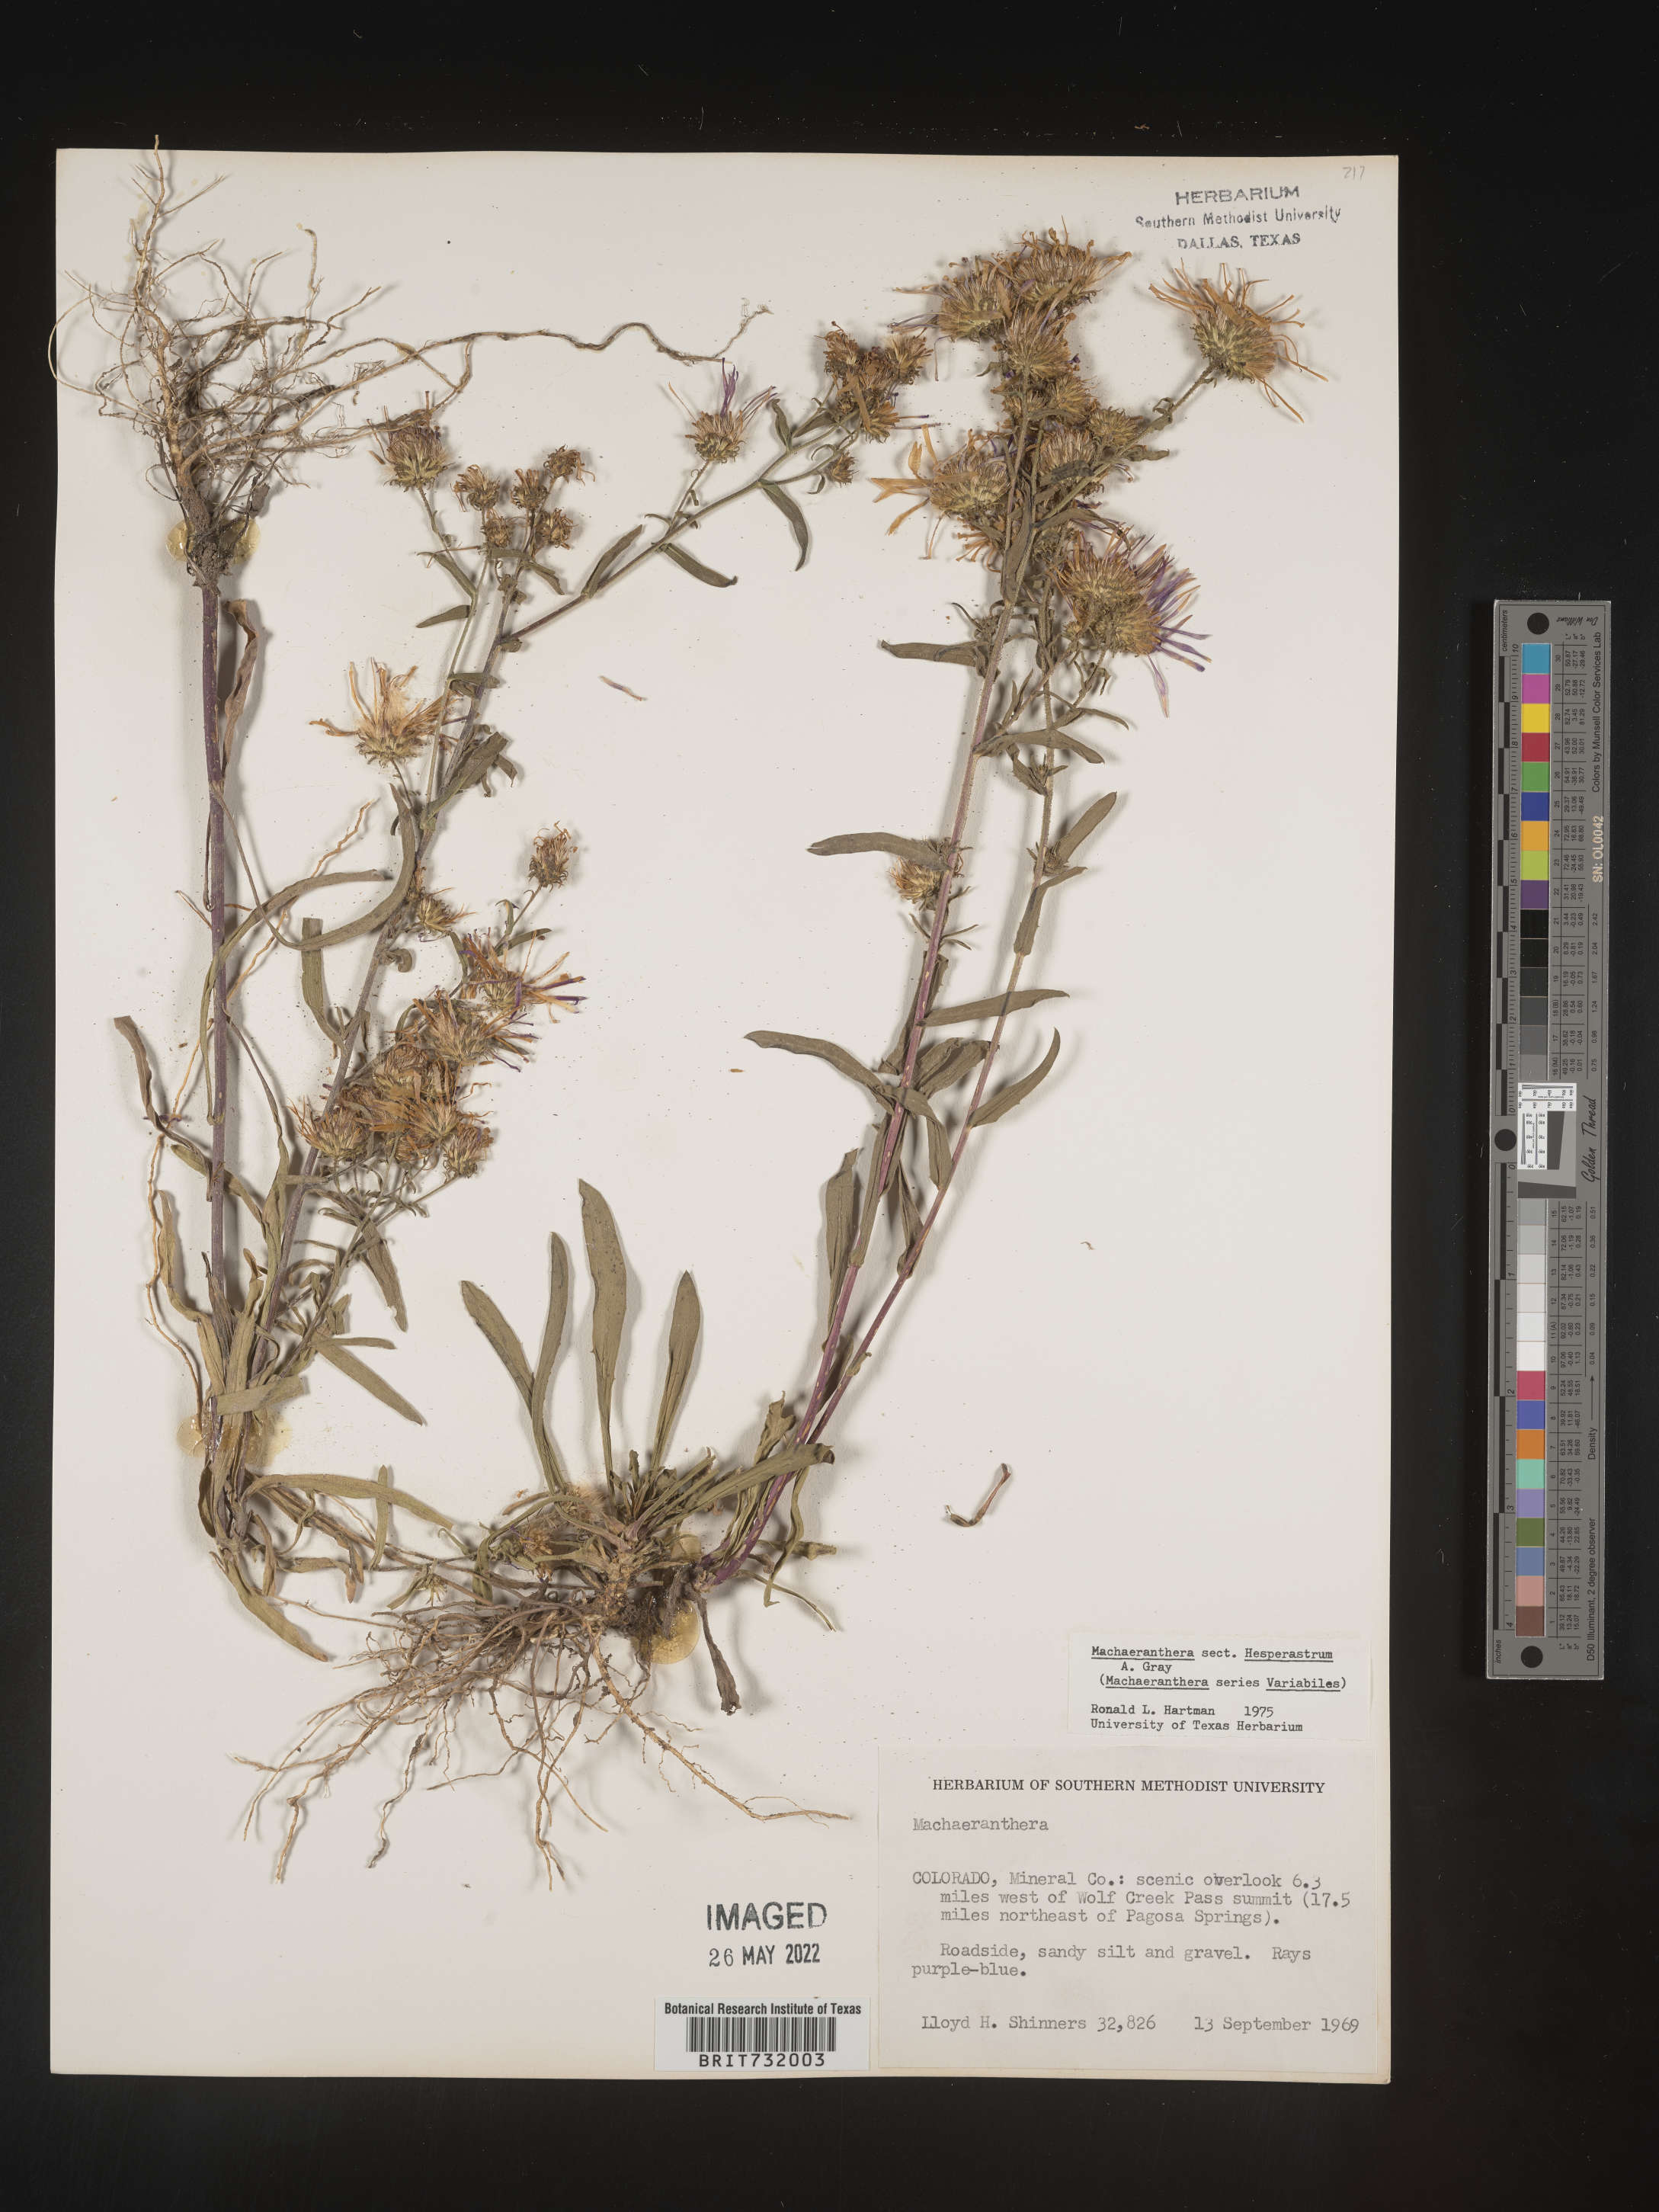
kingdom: Plantae
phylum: Tracheophyta
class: Magnoliopsida
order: Asterales
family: Asteraceae
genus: Machaeranthera
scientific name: Machaeranthera
